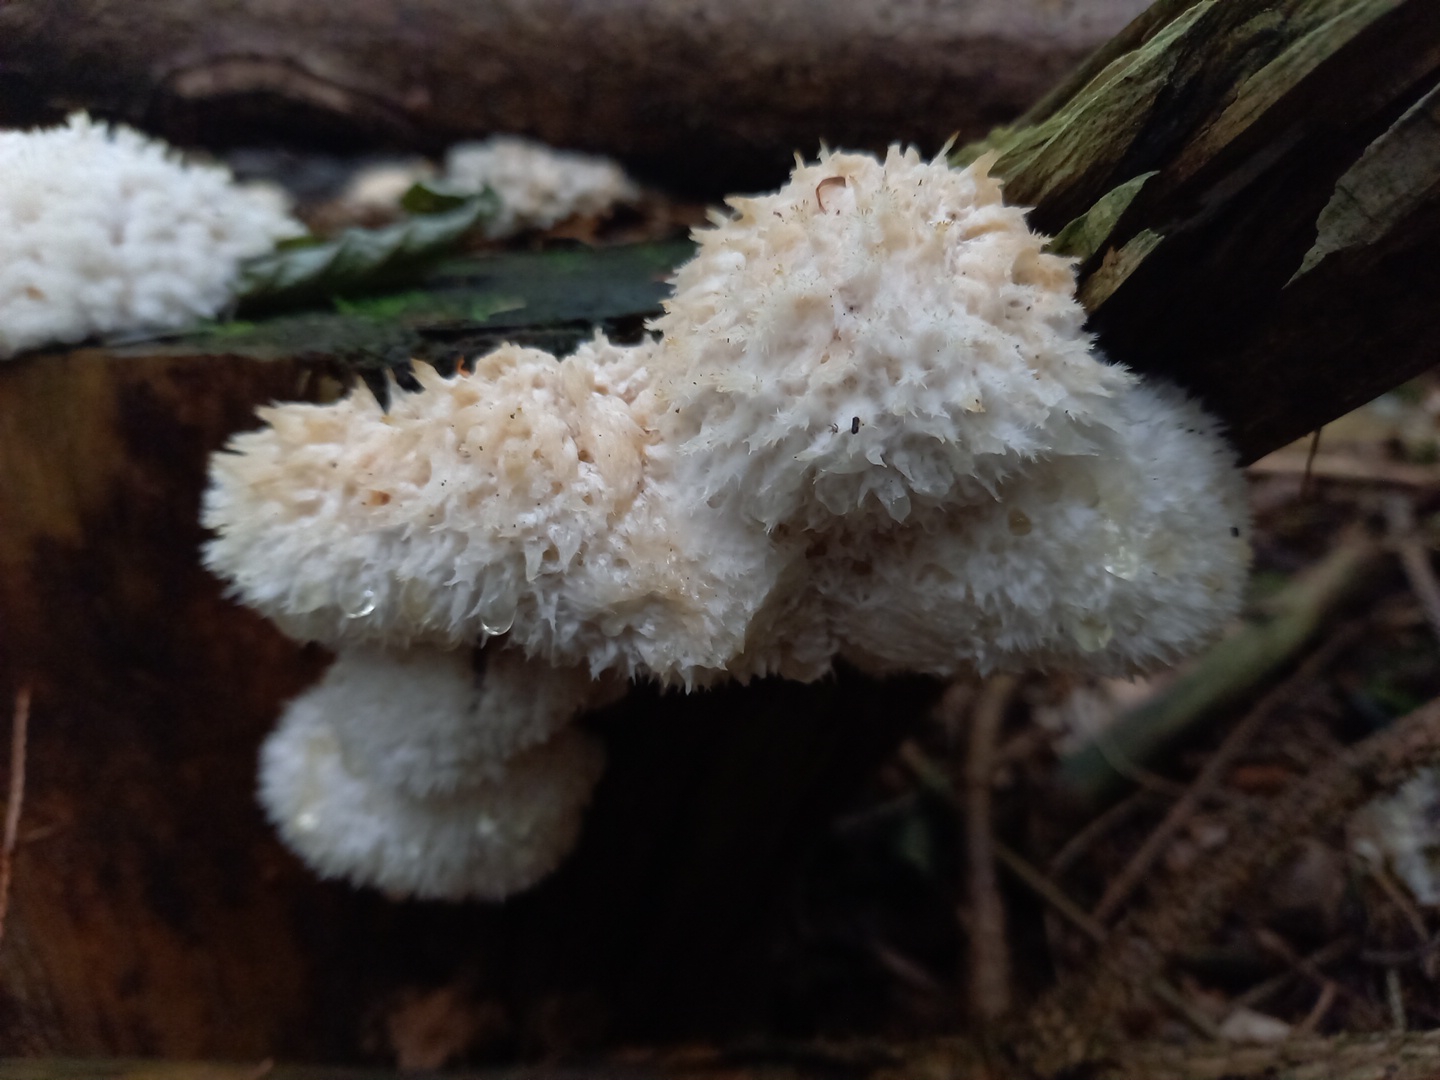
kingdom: Fungi
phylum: Basidiomycota
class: Agaricomycetes
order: Polyporales
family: Dacryobolaceae
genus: Postia
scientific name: Postia ptychogaster
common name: støvende kødporesvamp
